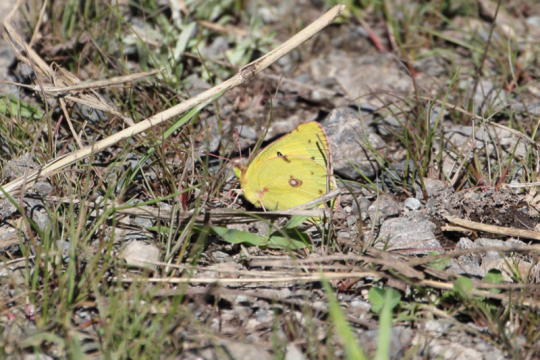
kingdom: Animalia
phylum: Arthropoda
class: Insecta
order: Lepidoptera
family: Pieridae
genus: Colias
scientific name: Colias philodice
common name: Clouded Sulphur
